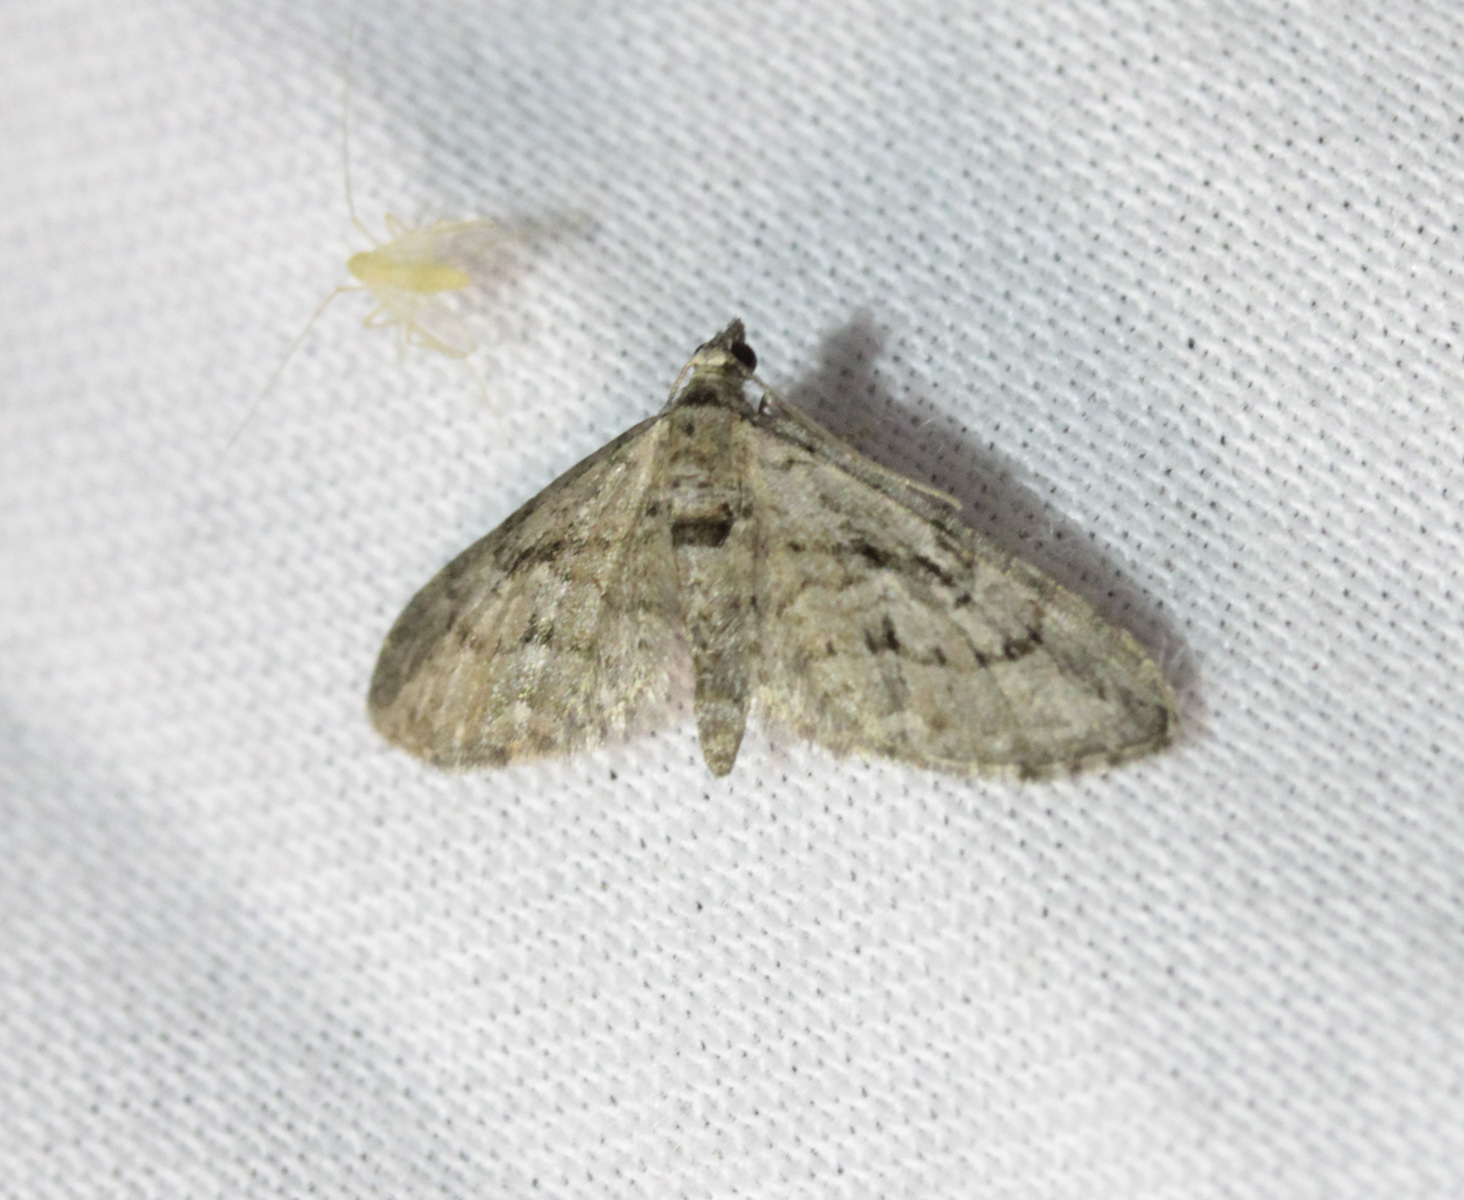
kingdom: Animalia
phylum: Arthropoda
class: Insecta
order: Lepidoptera
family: Geometridae
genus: Eupithecia
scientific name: Eupithecia pusillata
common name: Juniper pug
